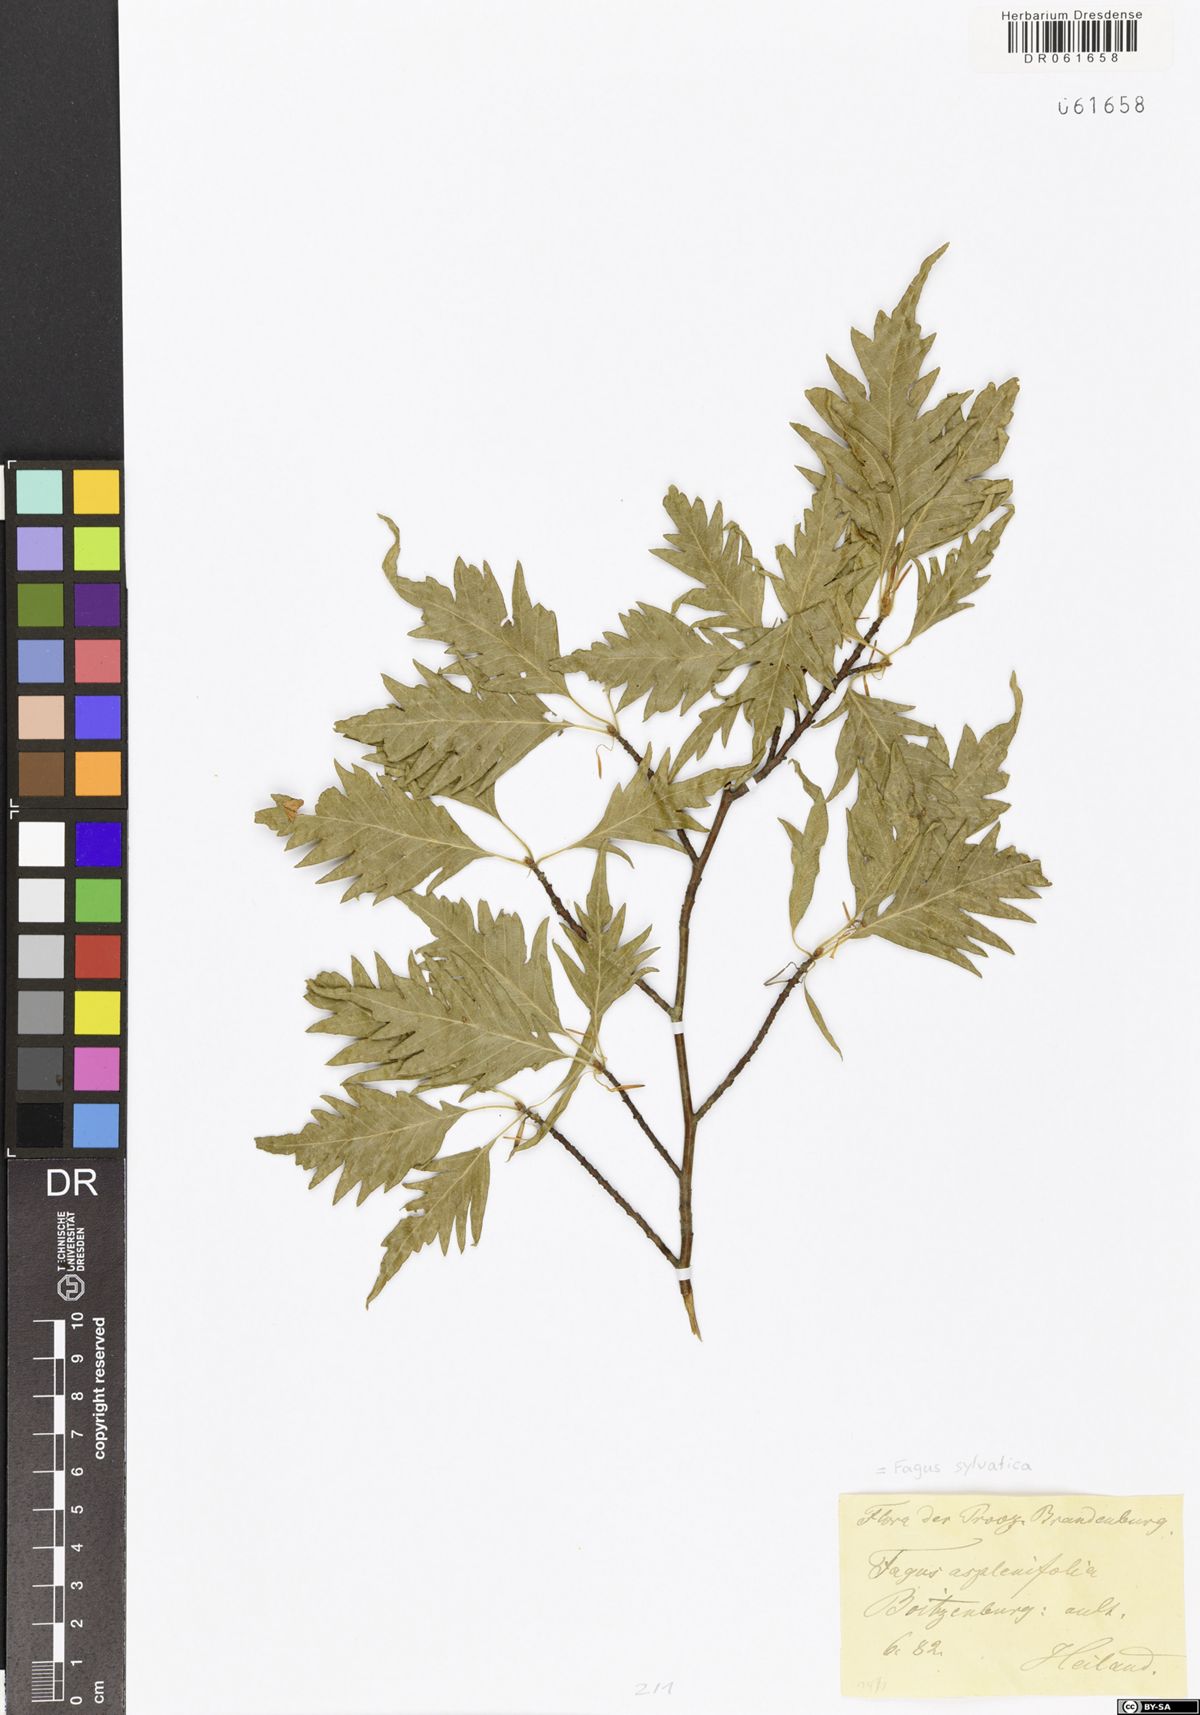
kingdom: Plantae
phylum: Tracheophyta
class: Magnoliopsida
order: Fagales
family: Fagaceae
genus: Fagus
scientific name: Fagus sylvatica
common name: Beech
